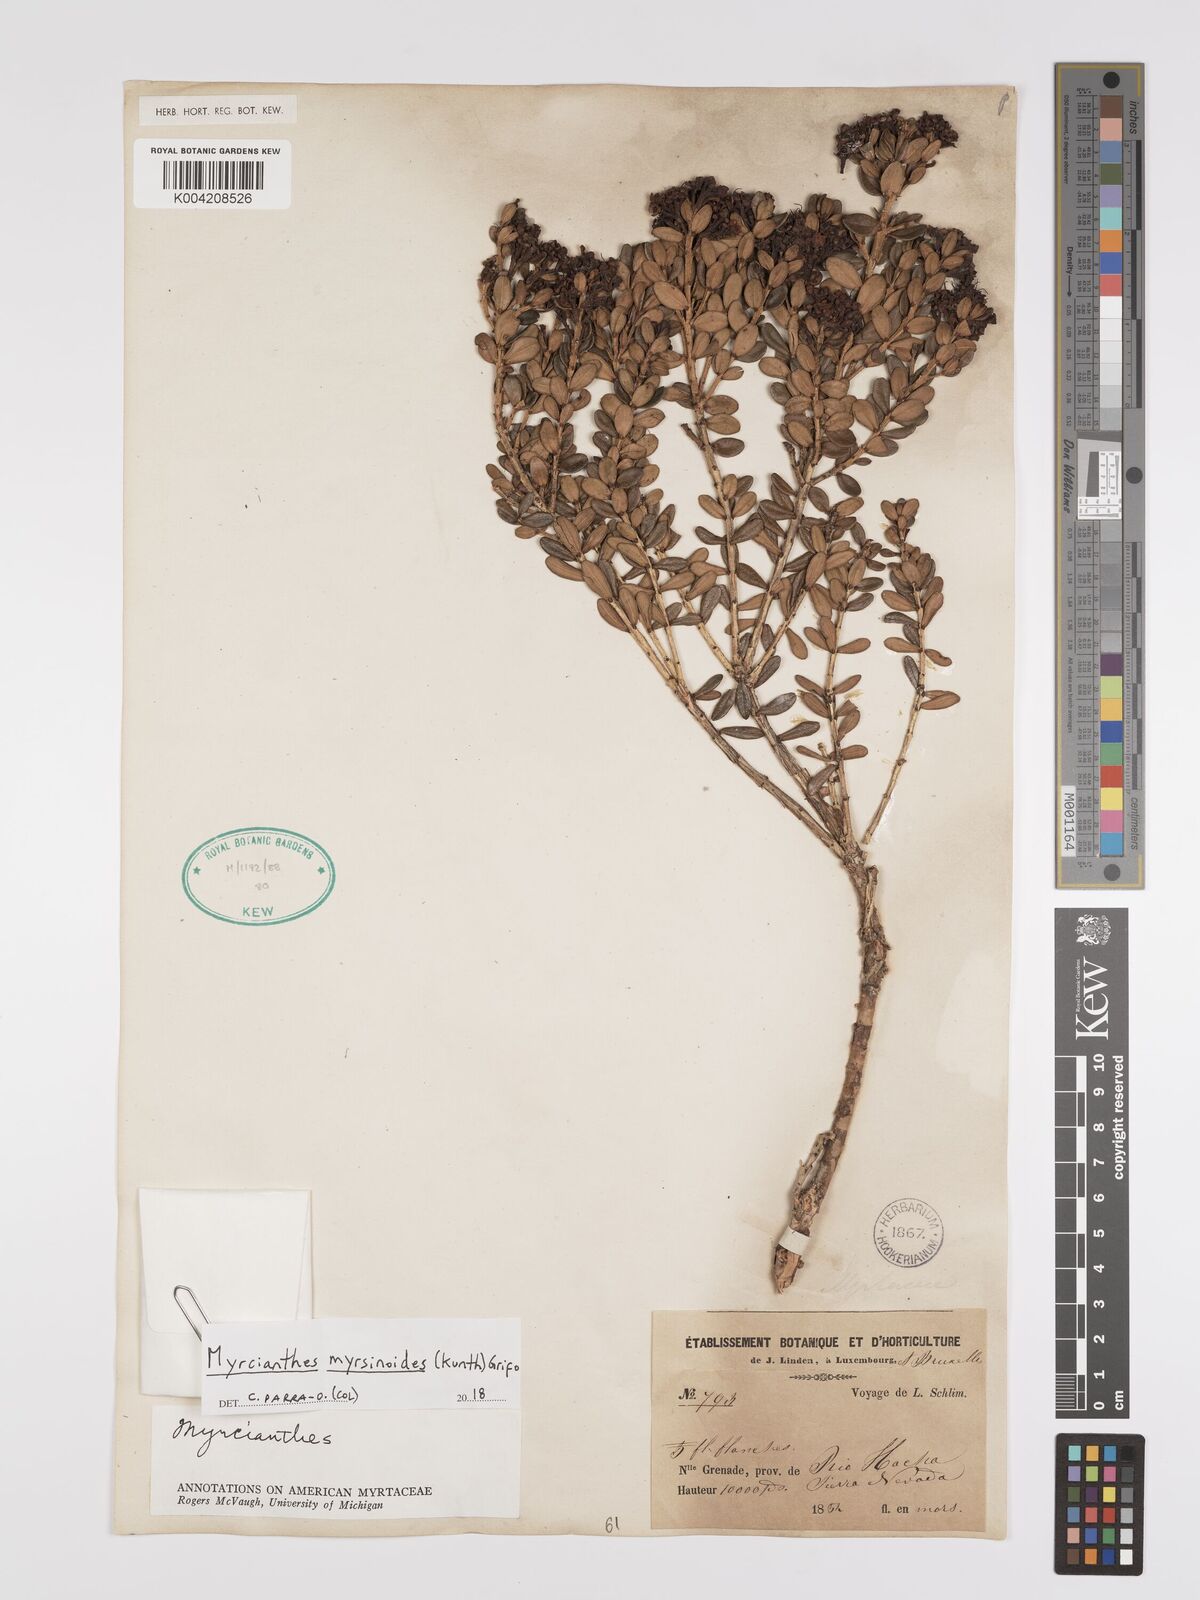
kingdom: Plantae
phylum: Tracheophyta
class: Magnoliopsida
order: Myrtales
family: Myrtaceae
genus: Myrcianthes
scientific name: Myrcianthes myrsinoides
